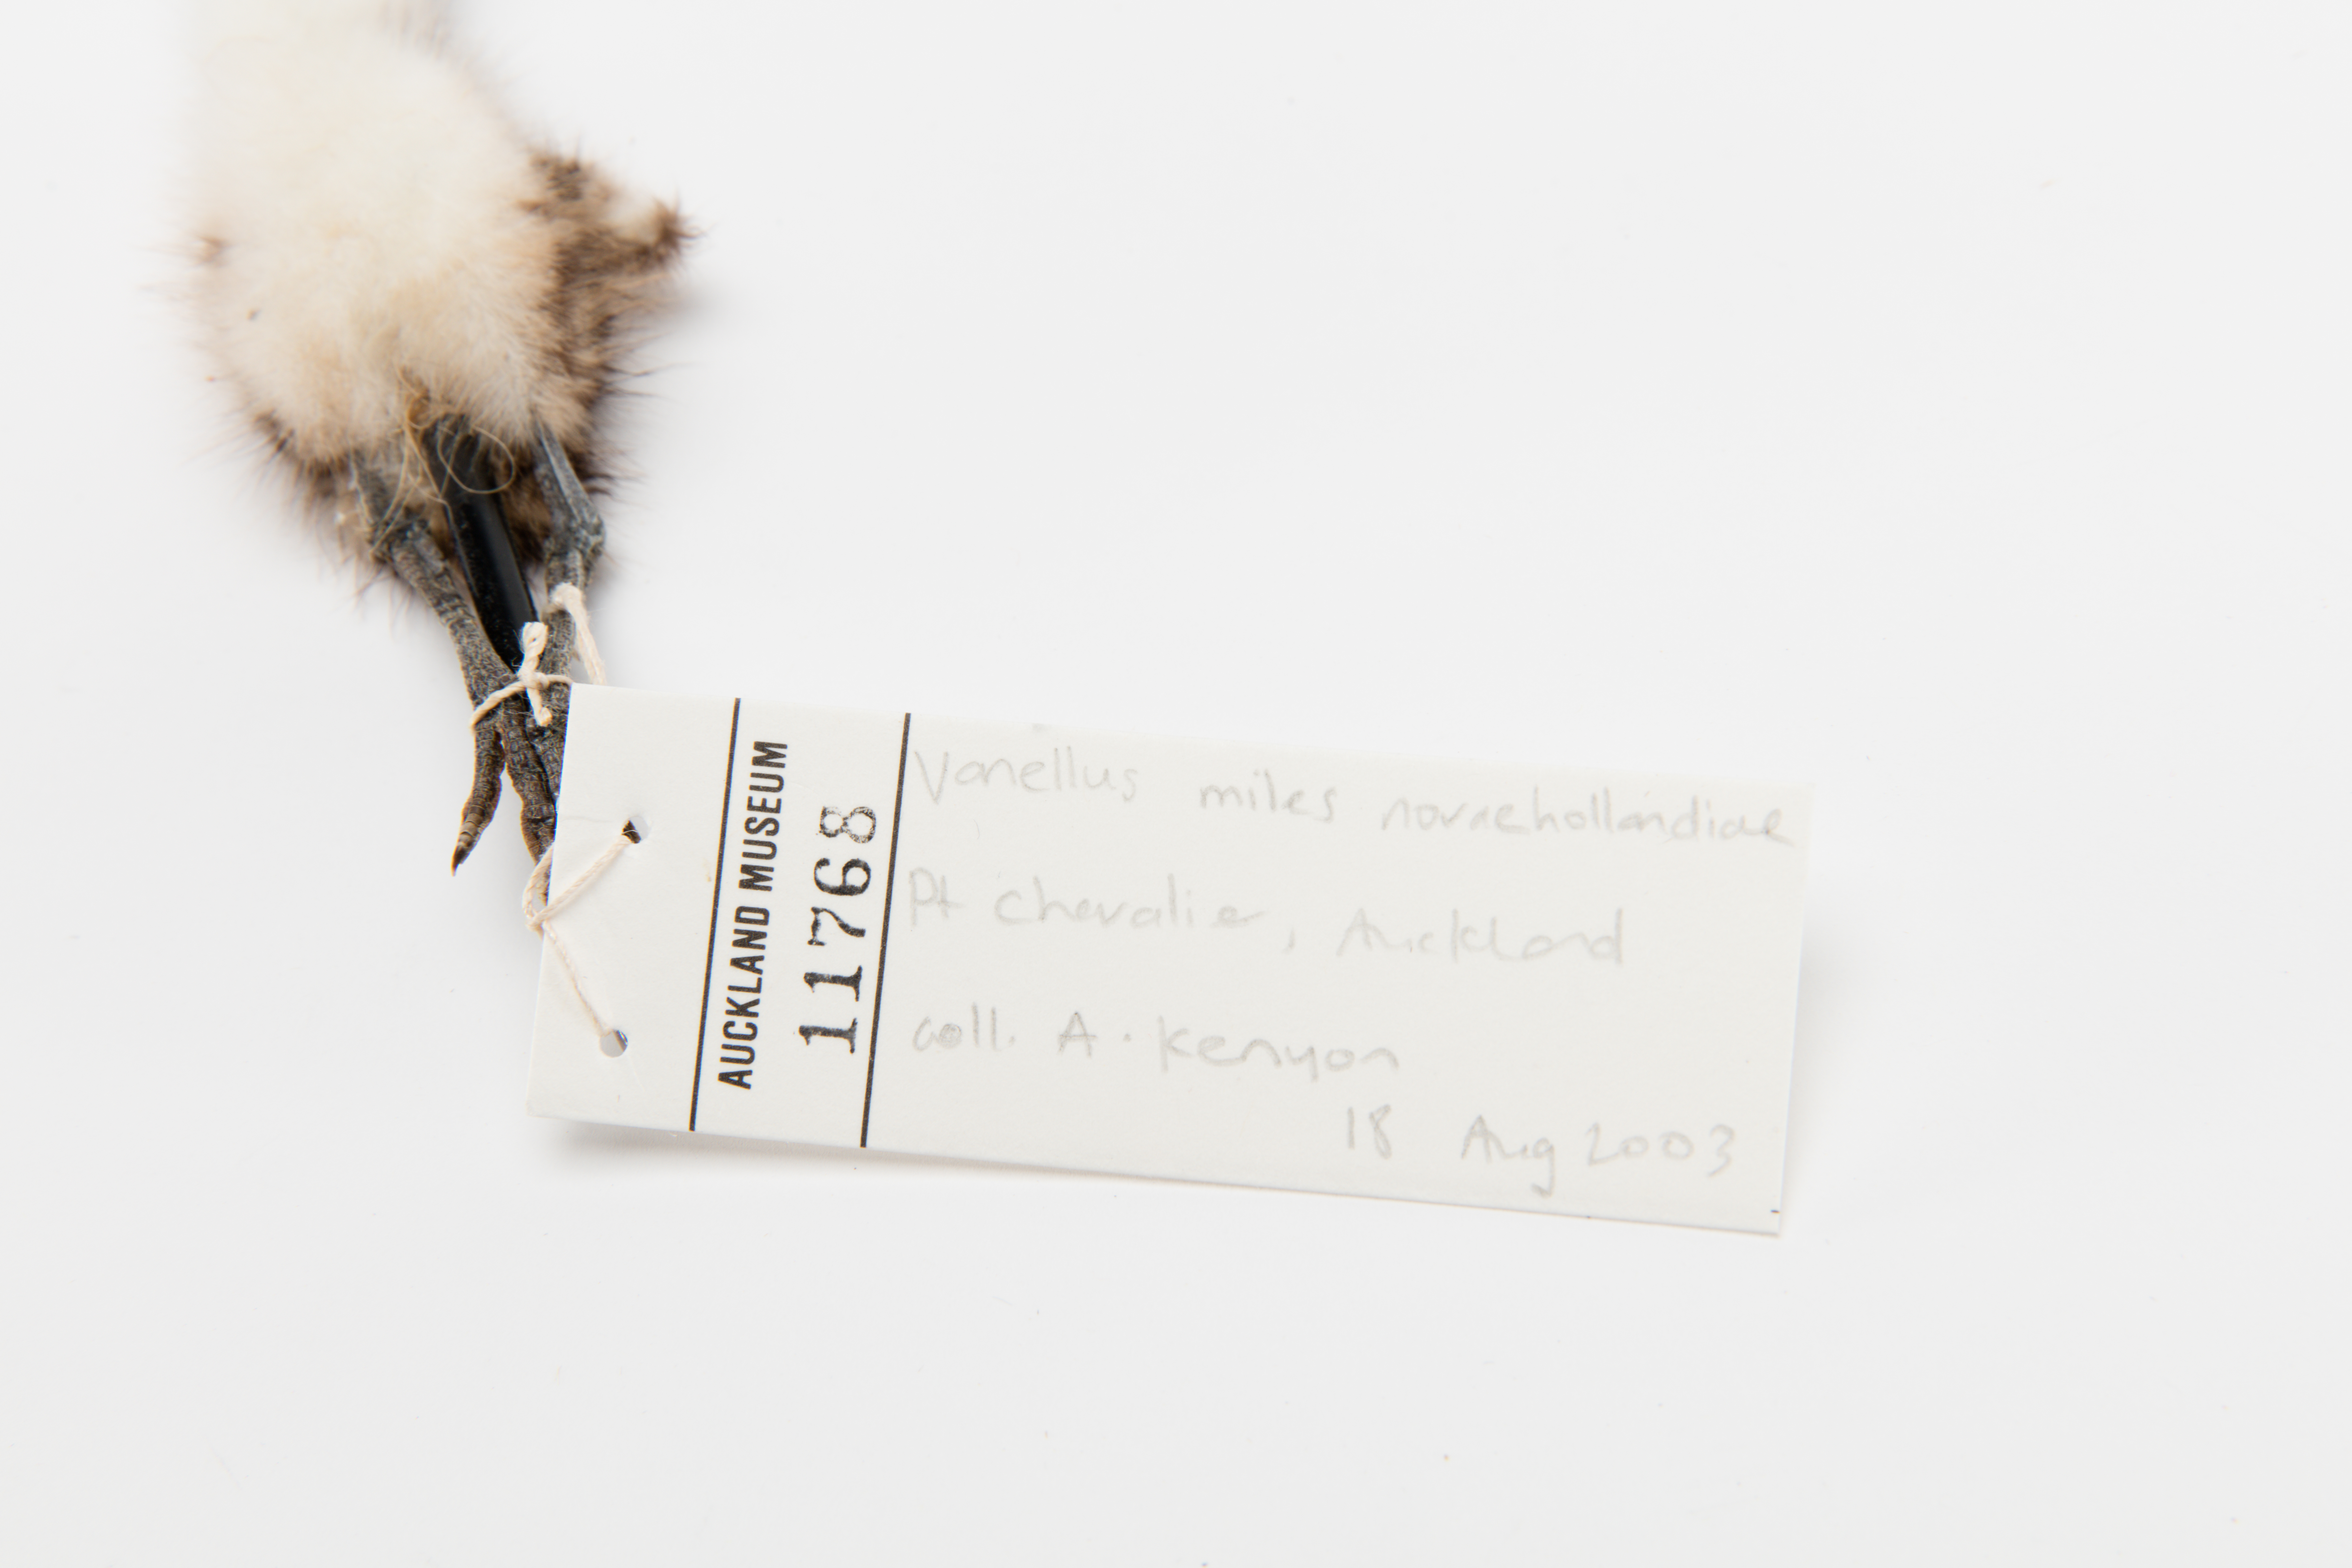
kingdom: Animalia
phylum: Chordata
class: Aves
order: Charadriiformes
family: Charadriidae
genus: Vanellus
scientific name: Vanellus miles
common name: Masked lapwing
